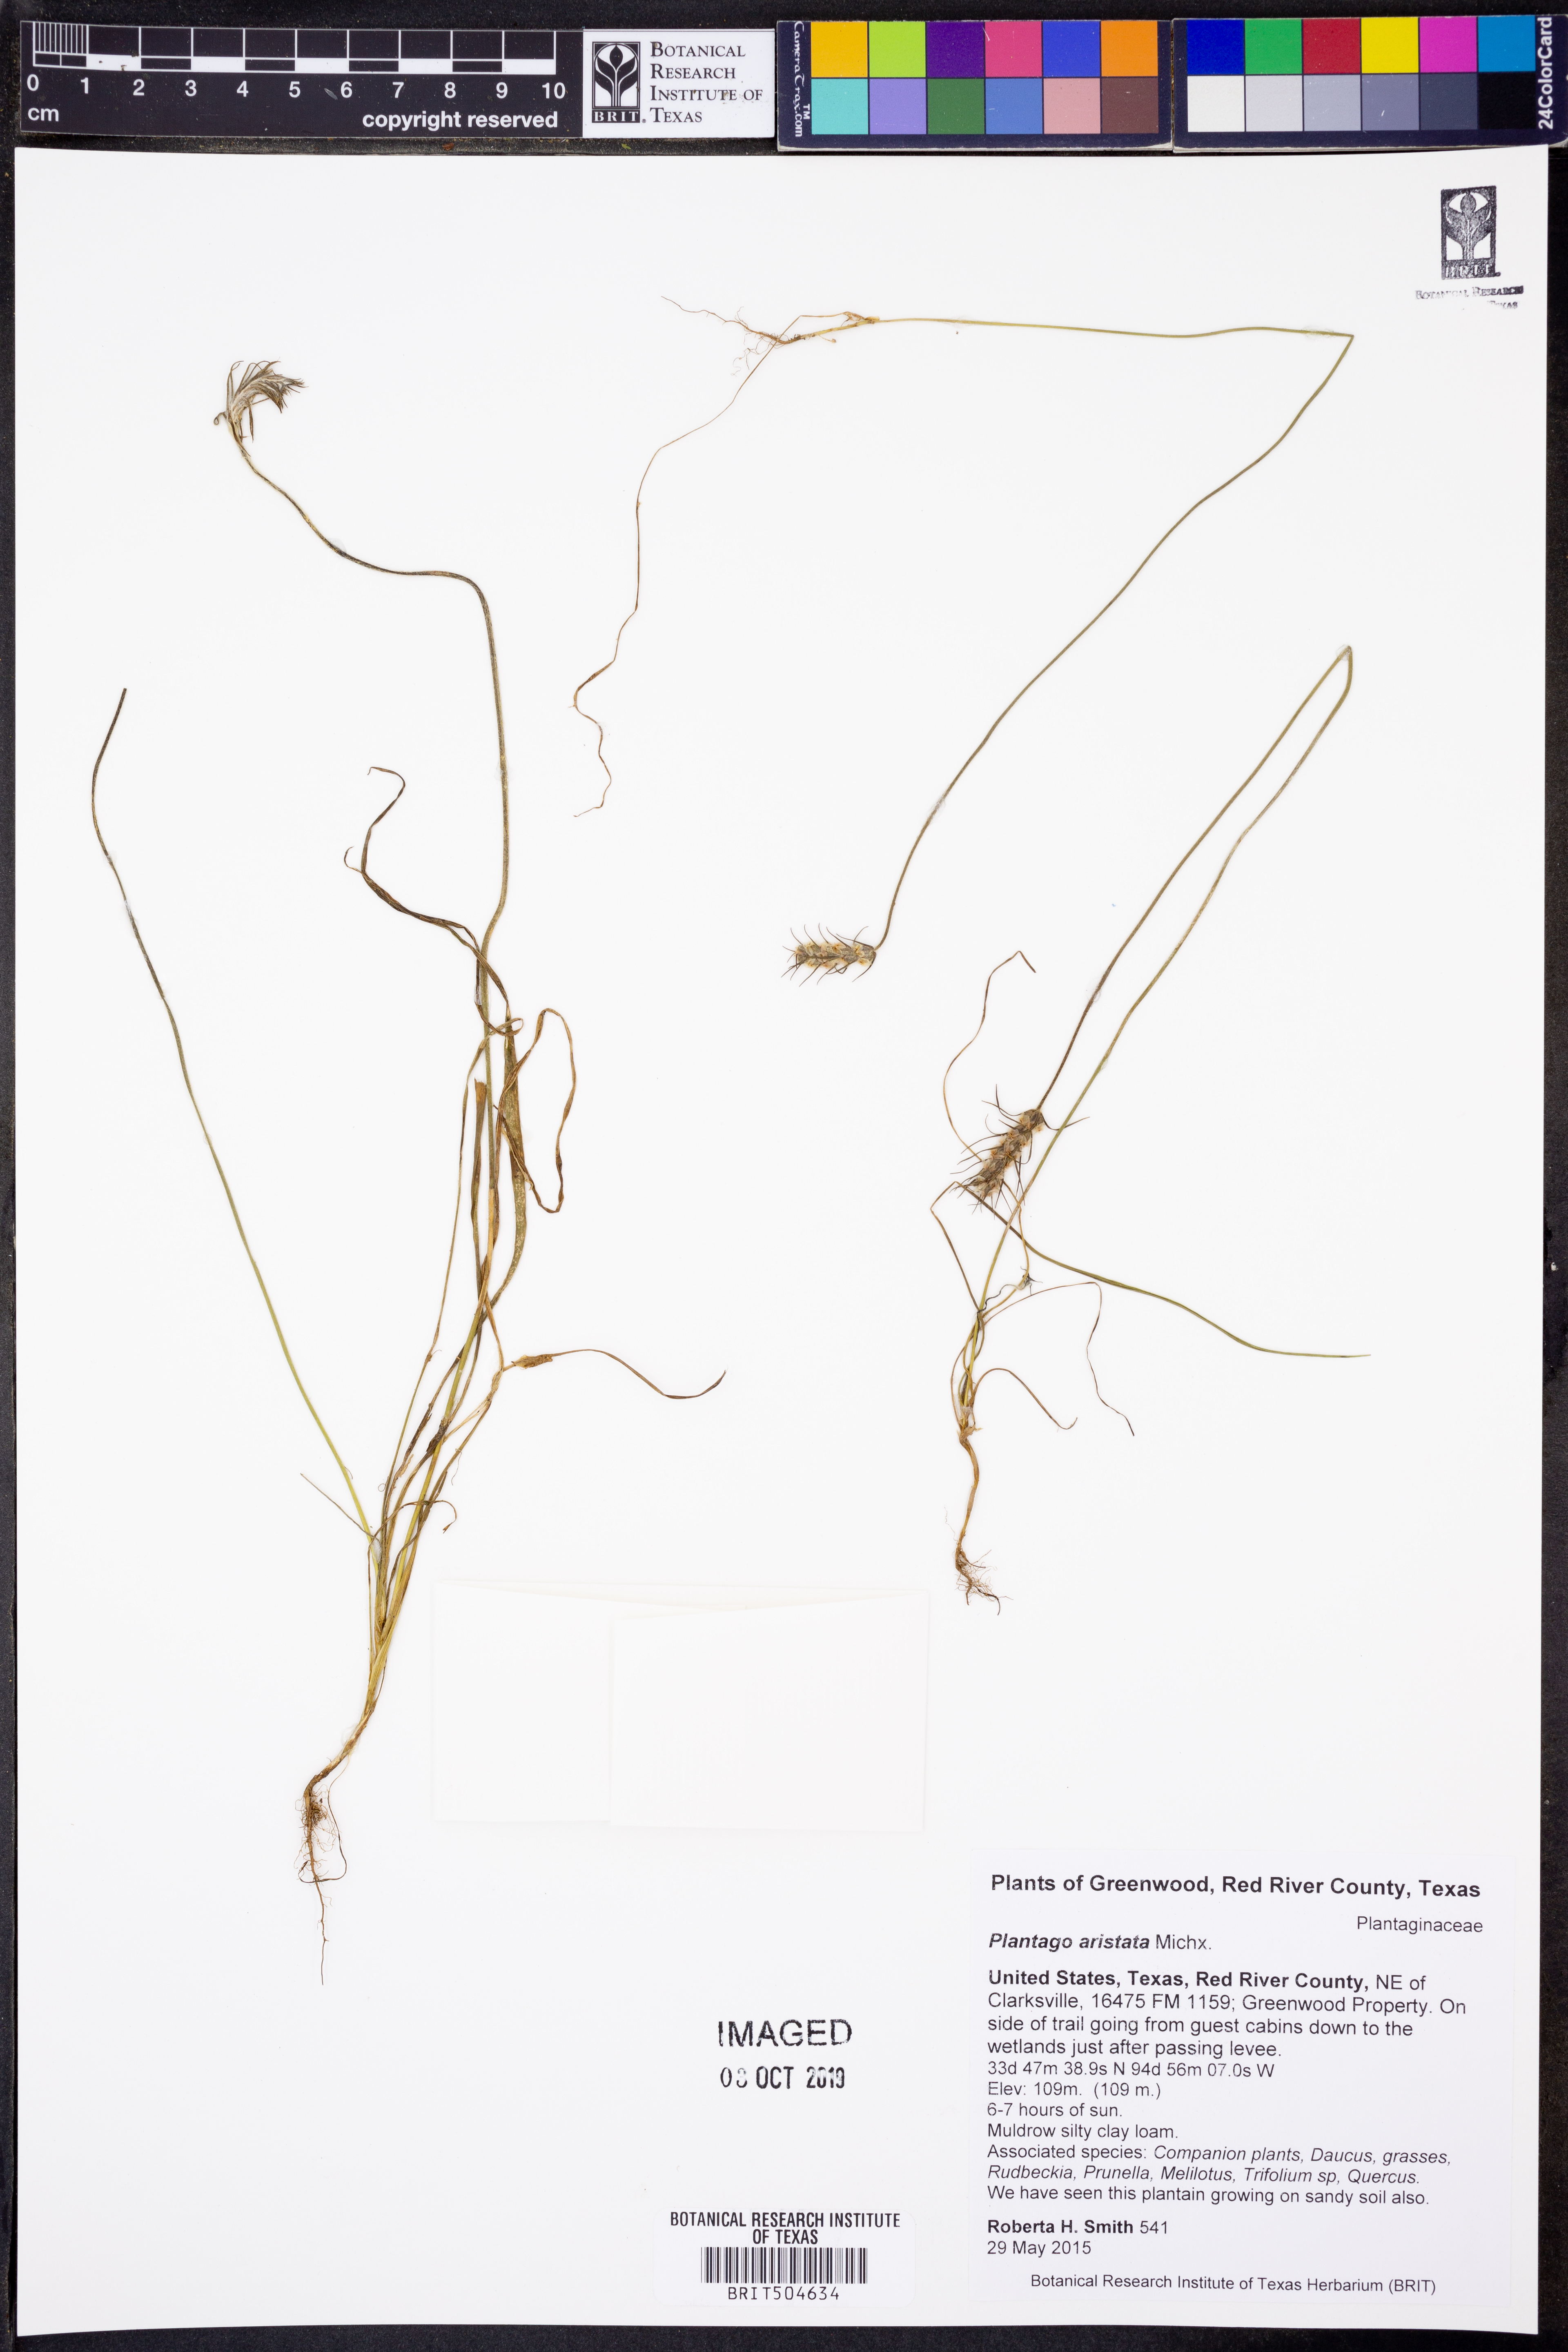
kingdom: Plantae
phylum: Tracheophyta
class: Magnoliopsida
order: Lamiales
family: Plantaginaceae
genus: Plantago
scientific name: Plantago aristata
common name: Bracted plantain
